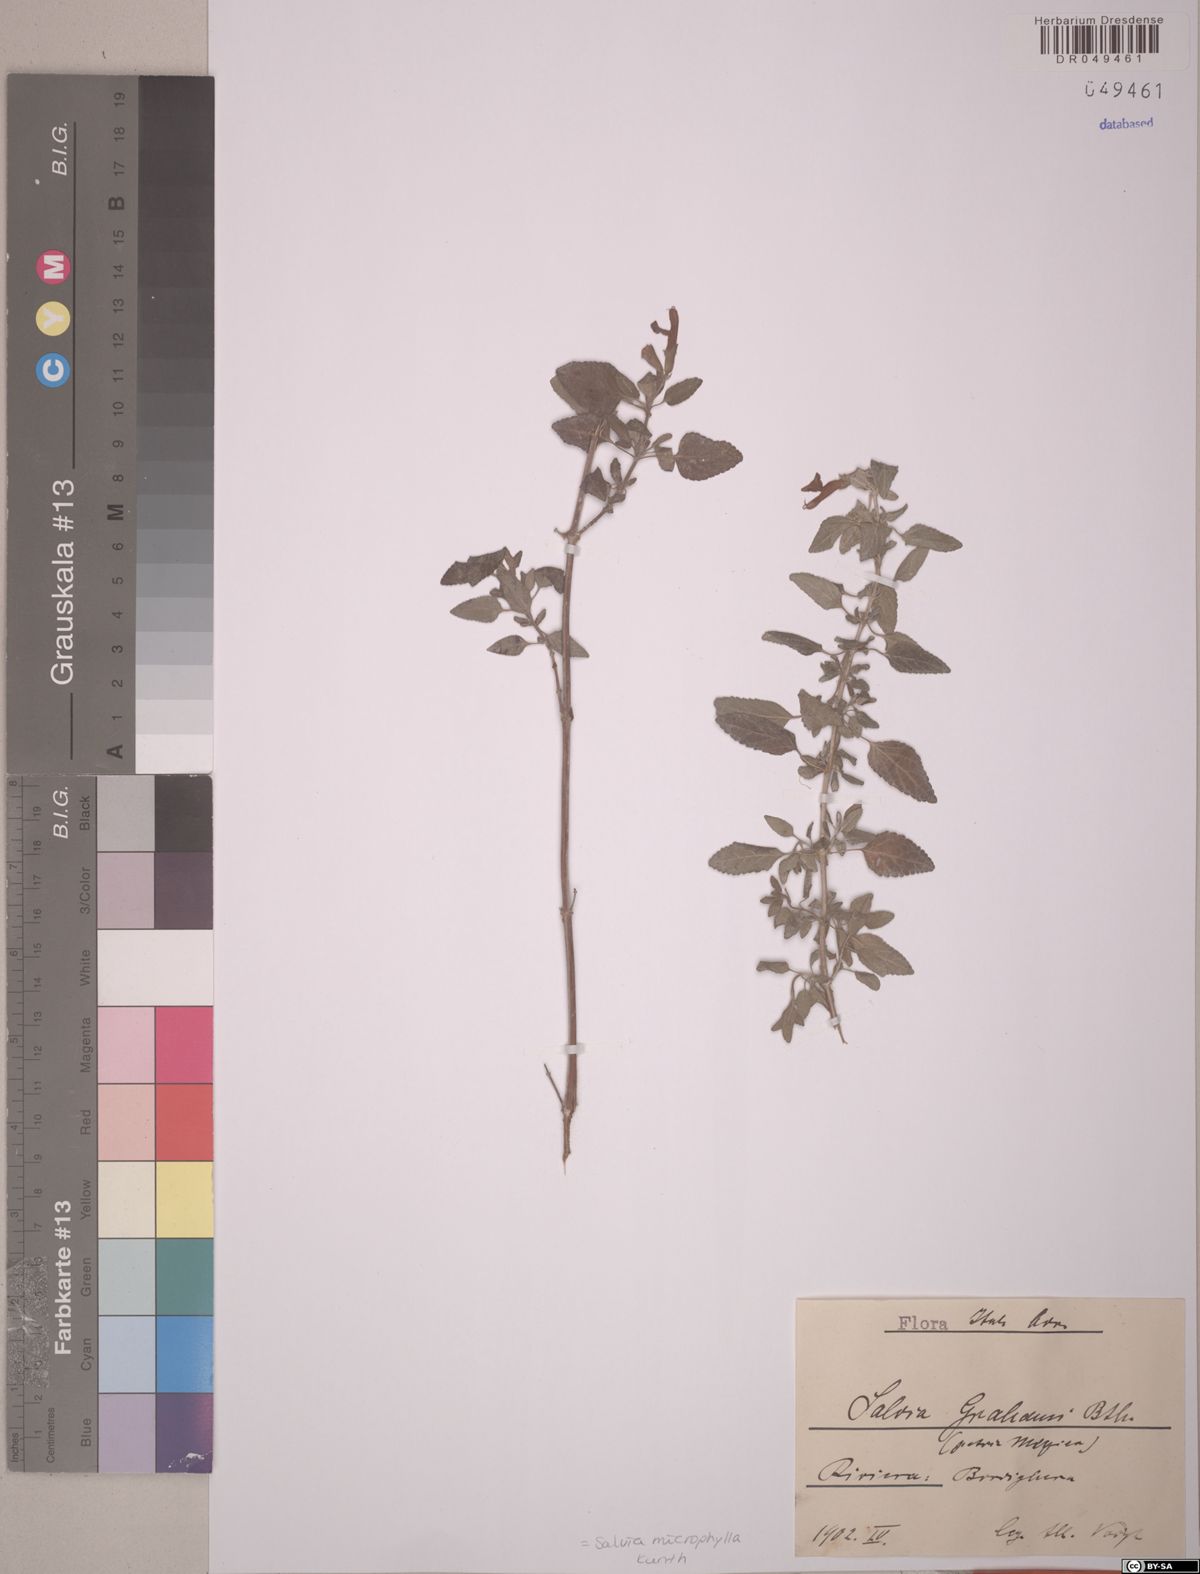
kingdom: Plantae
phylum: Tracheophyta
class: Magnoliopsida
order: Lamiales
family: Lamiaceae
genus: Salvia
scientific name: Salvia microphylla
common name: Baby sage
